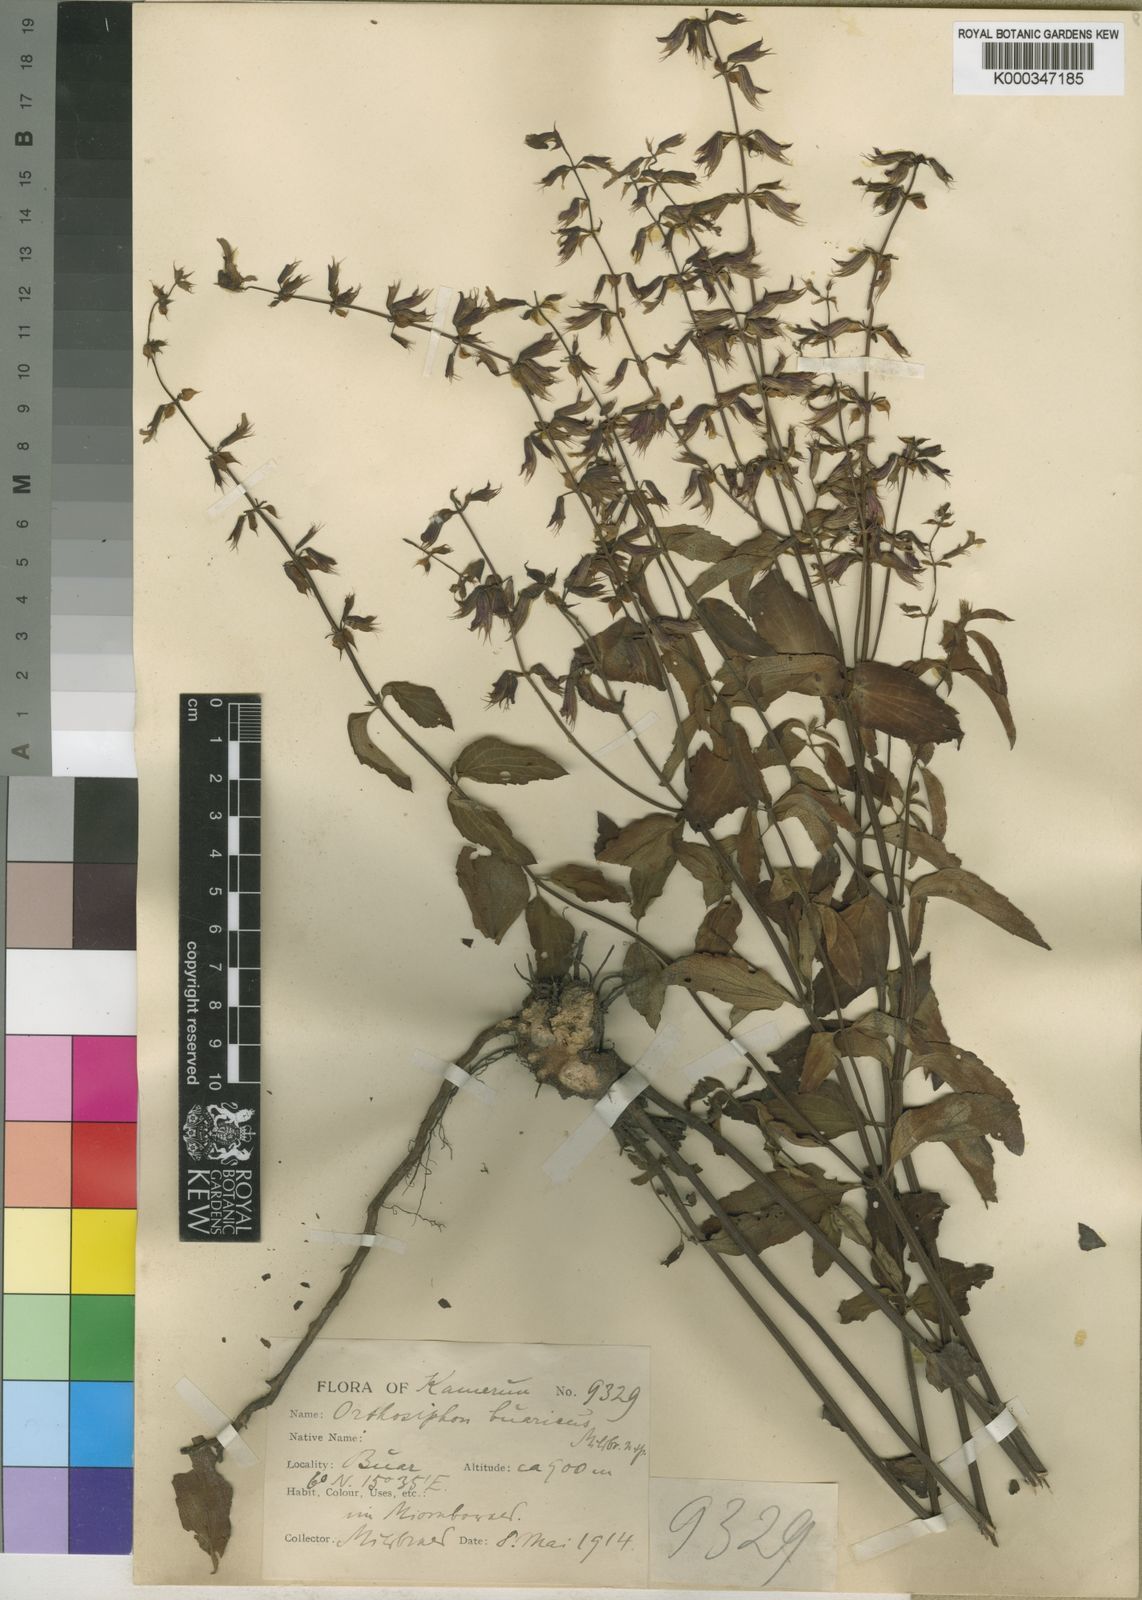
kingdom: Plantae
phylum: Tracheophyta
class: Magnoliopsida
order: Lamiales
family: Lamiaceae
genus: Orthosiphon
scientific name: Orthosiphon rufinervis
